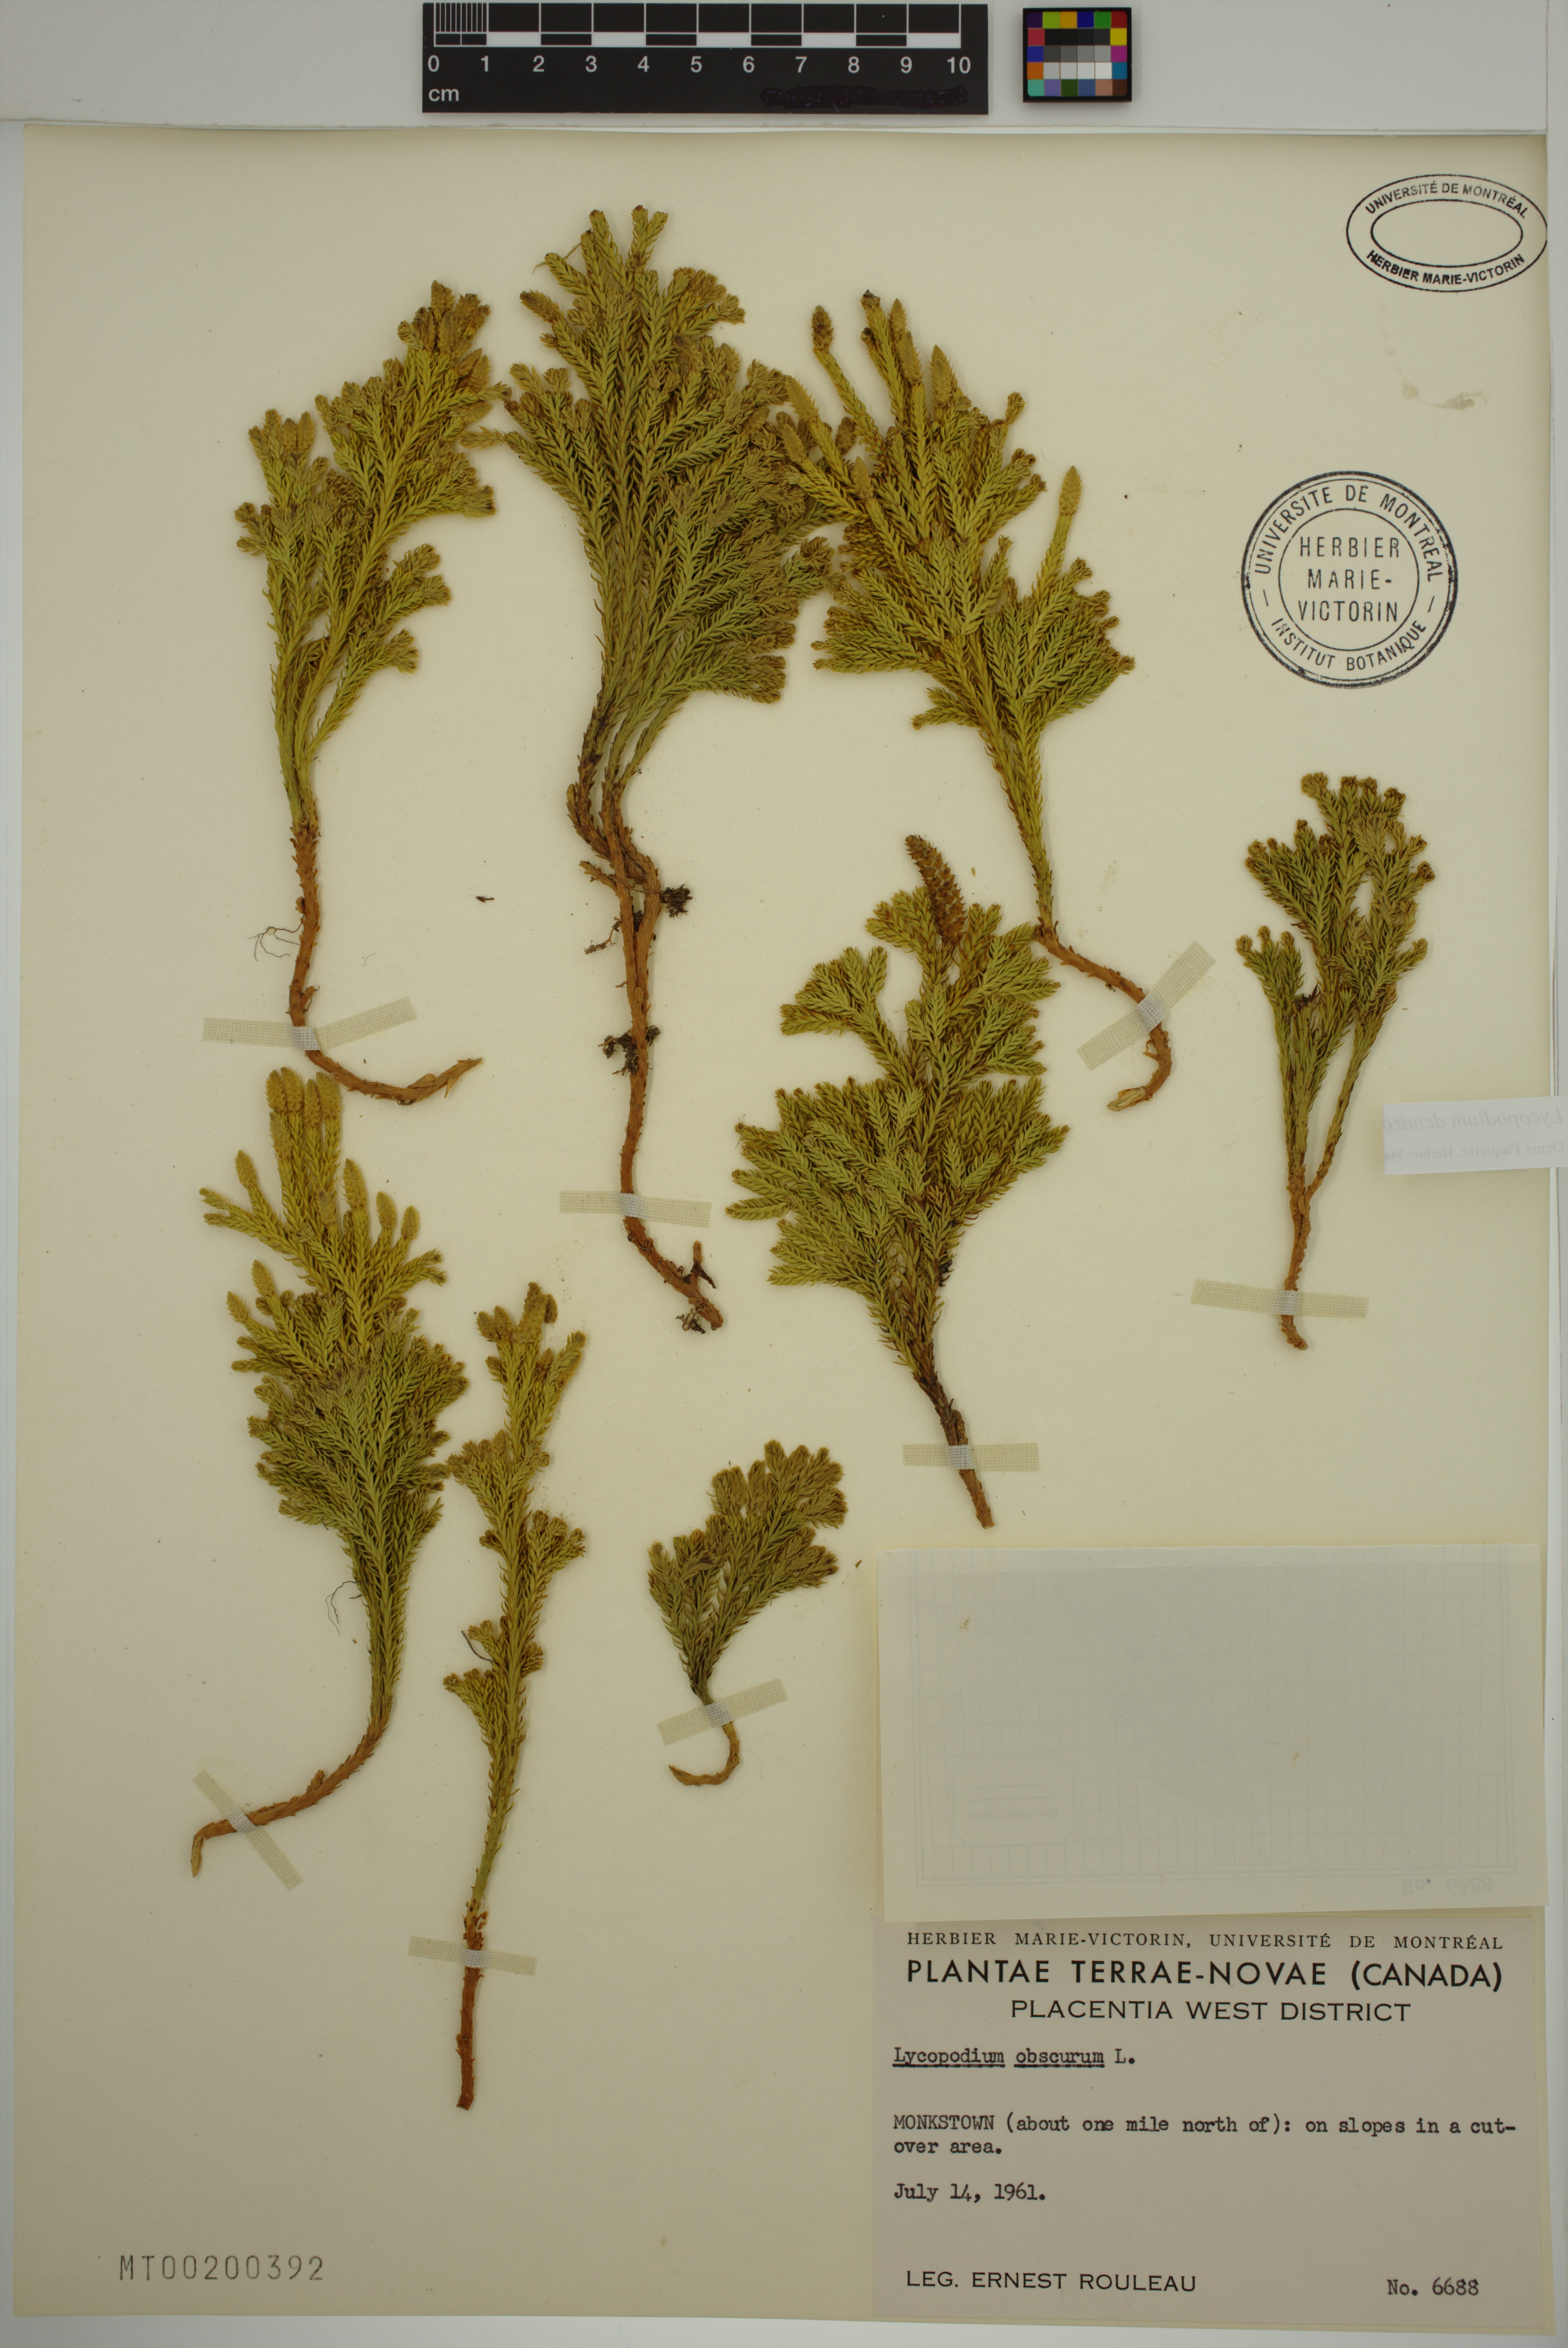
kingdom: Plantae
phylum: Tracheophyta
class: Lycopodiopsida
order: Lycopodiales
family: Lycopodiaceae
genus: Dendrolycopodium
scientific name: Dendrolycopodium dendroideum
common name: Northern tree-clubmoss
